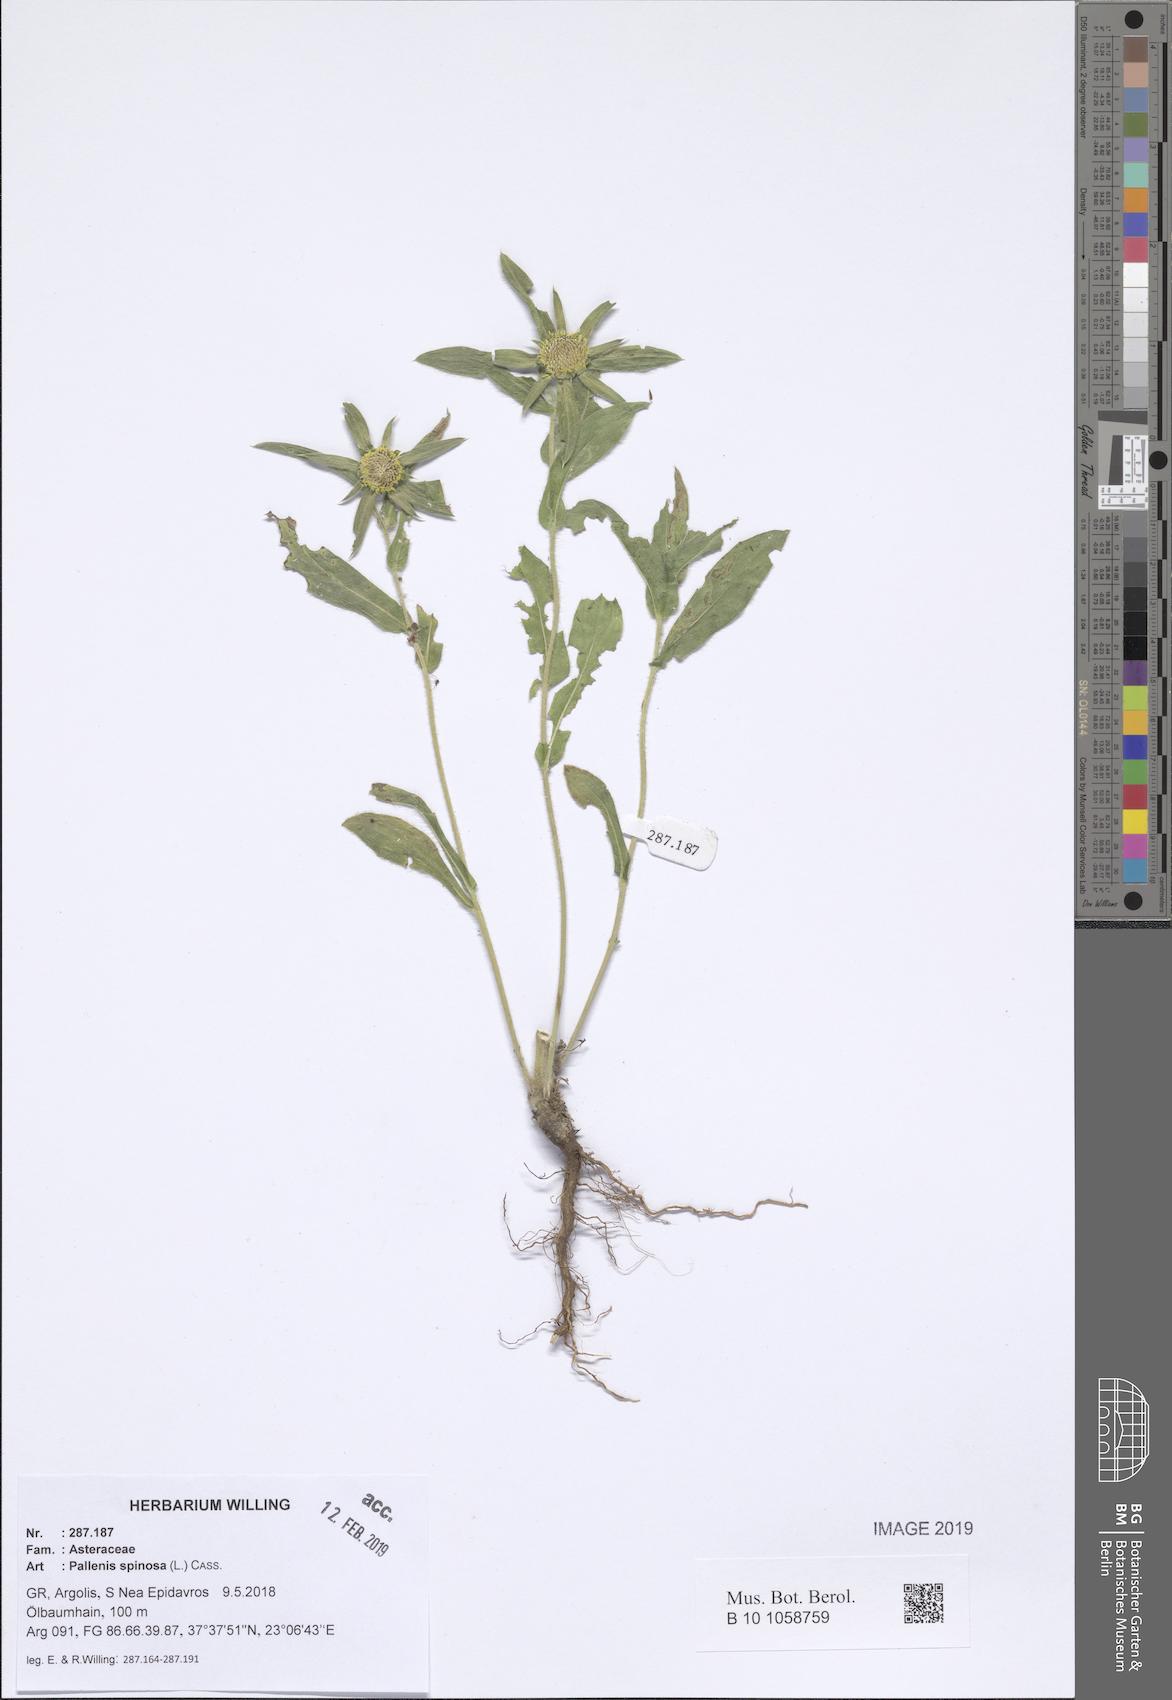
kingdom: Plantae
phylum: Tracheophyta
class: Magnoliopsida
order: Asterales
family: Asteraceae
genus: Pallenis
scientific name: Pallenis spinosa
